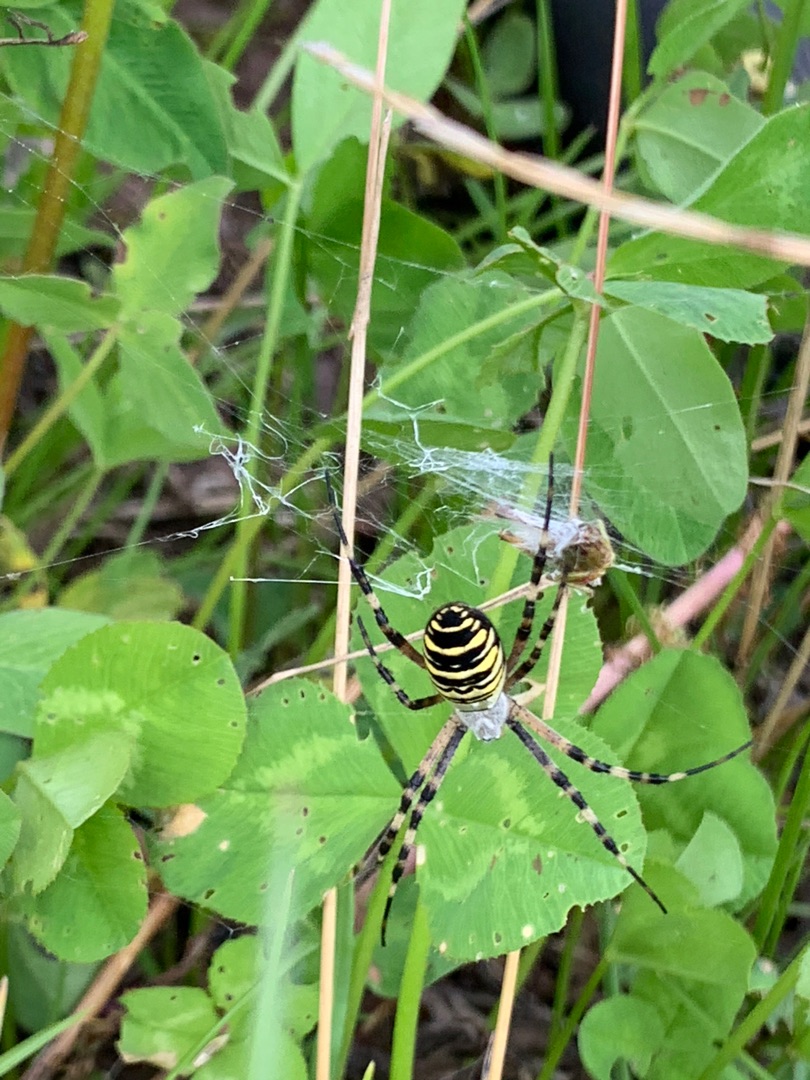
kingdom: Animalia
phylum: Arthropoda
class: Arachnida
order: Araneae
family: Araneidae
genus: Argiope
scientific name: Argiope bruennichi
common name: Hvepseedderkop
